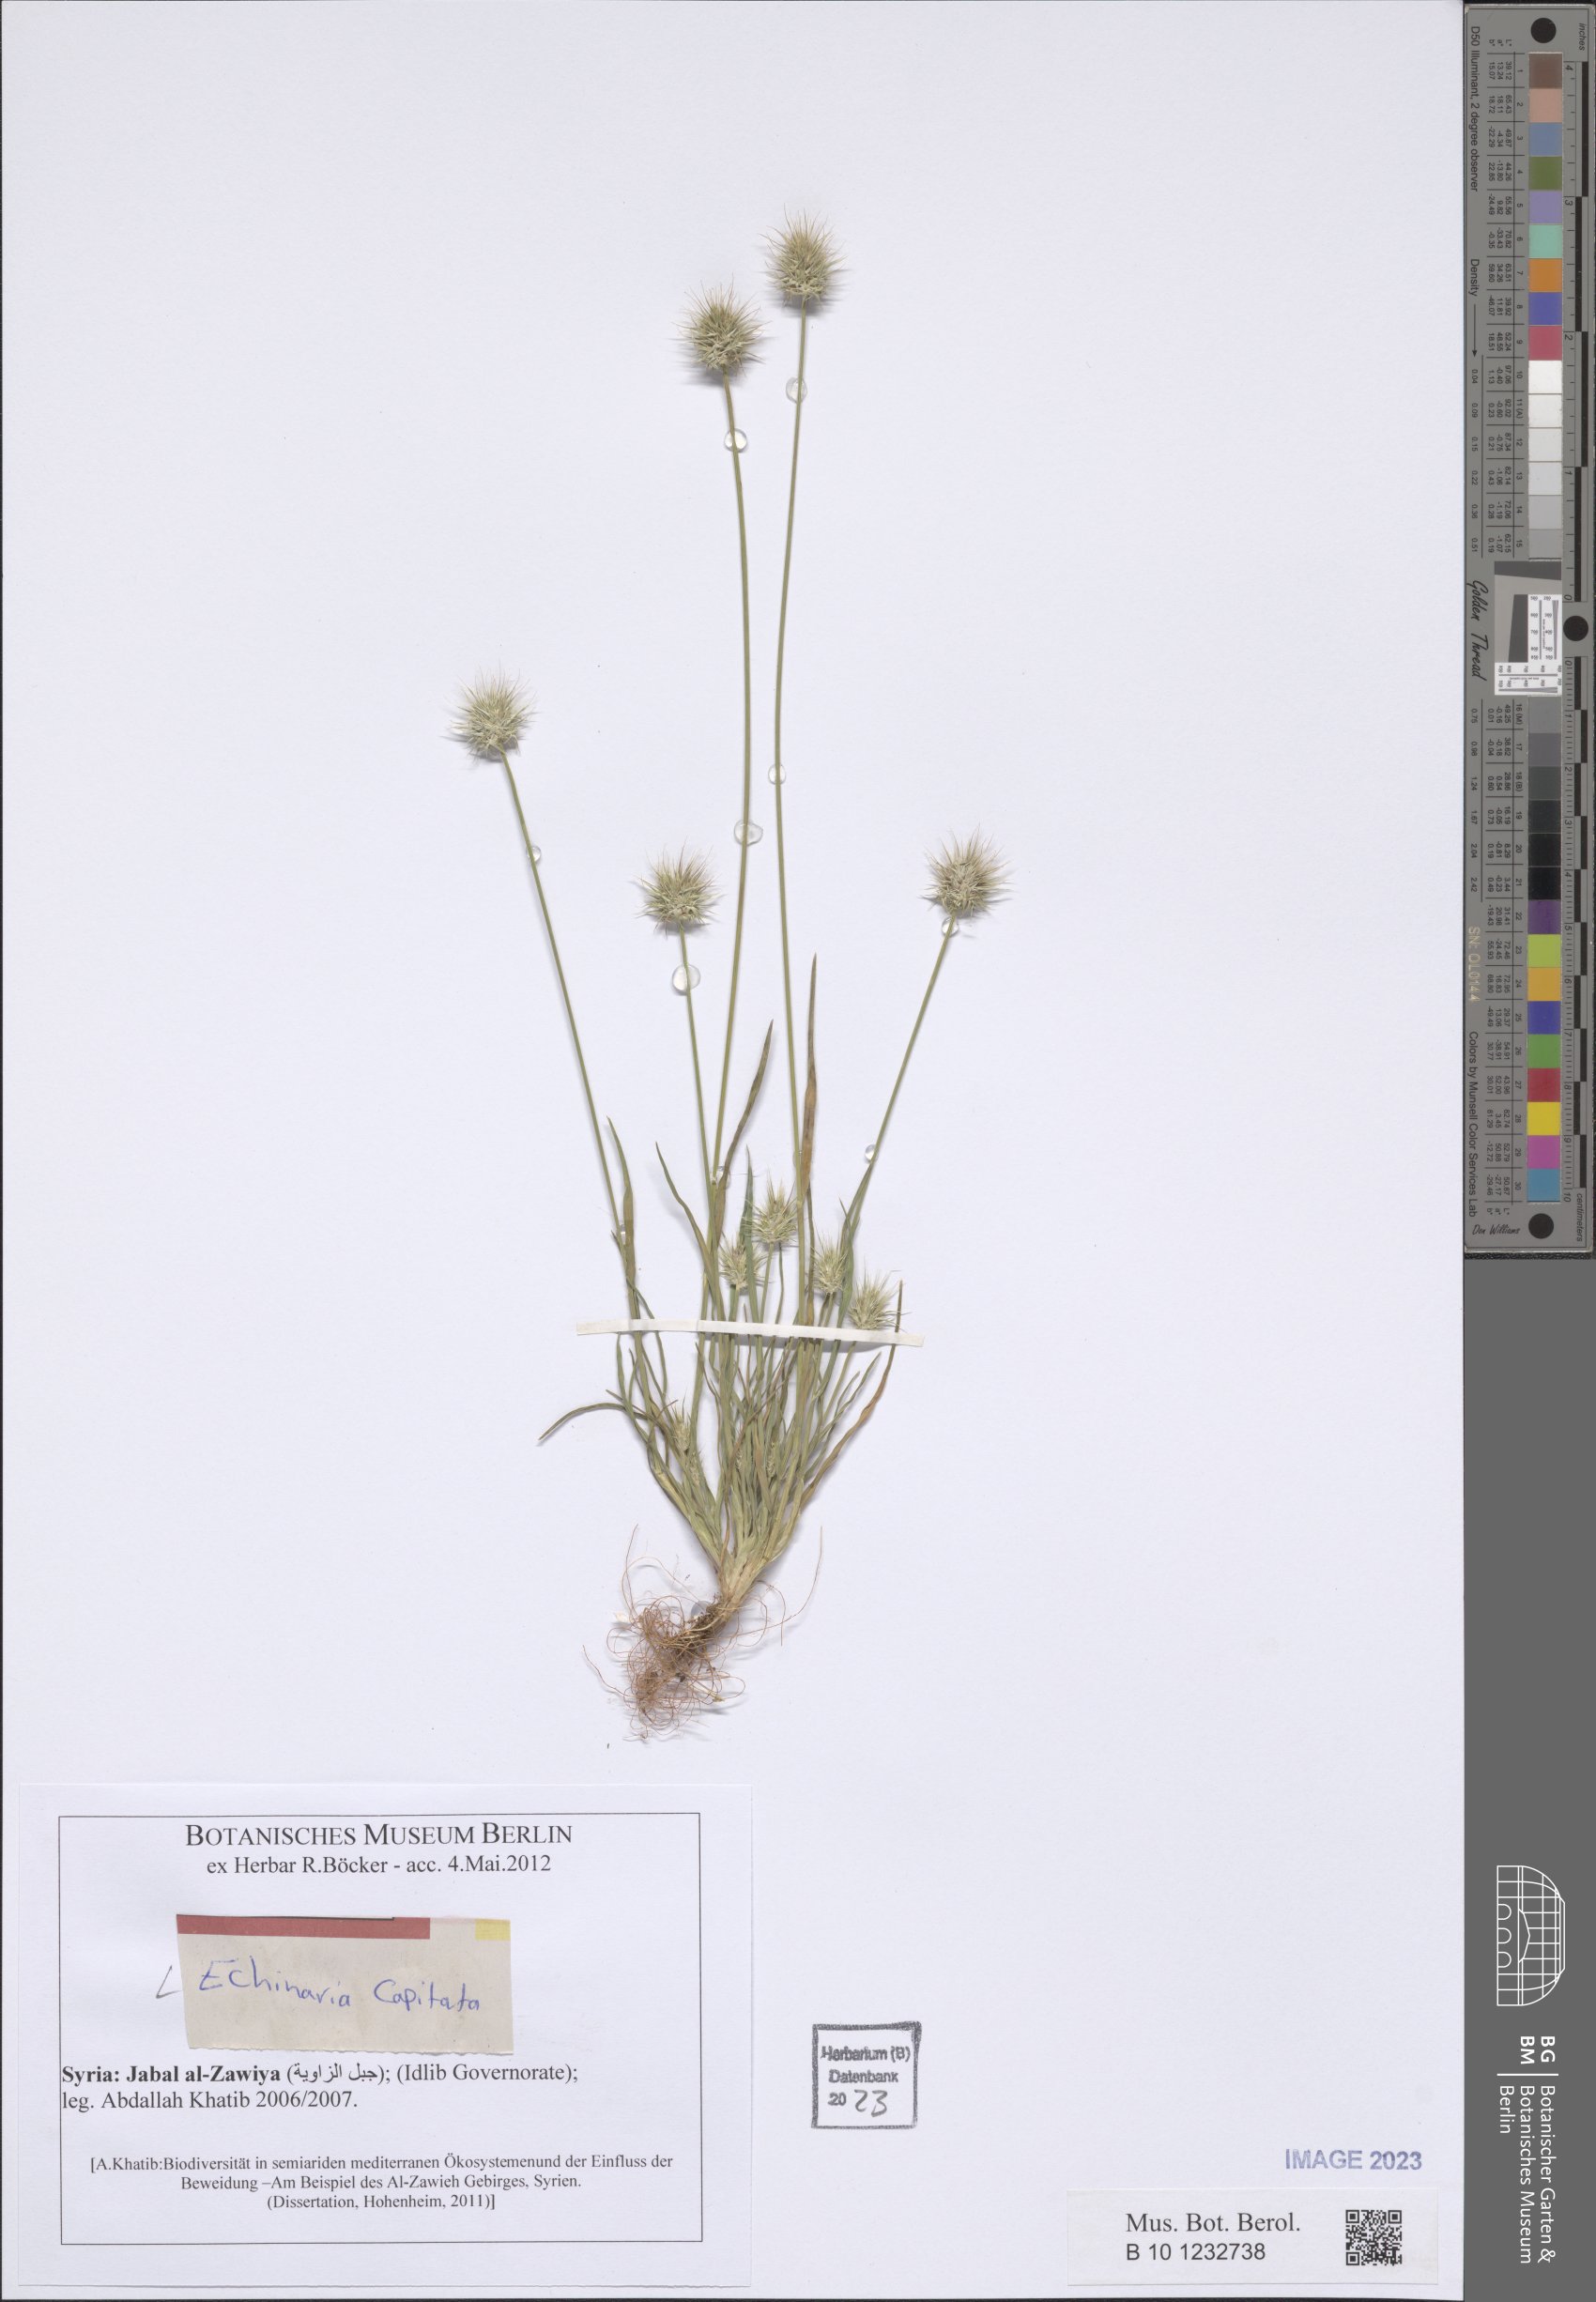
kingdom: Plantae
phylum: Tracheophyta
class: Liliopsida
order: Poales
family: Poaceae
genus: Echinaria
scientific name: Echinaria capitata
